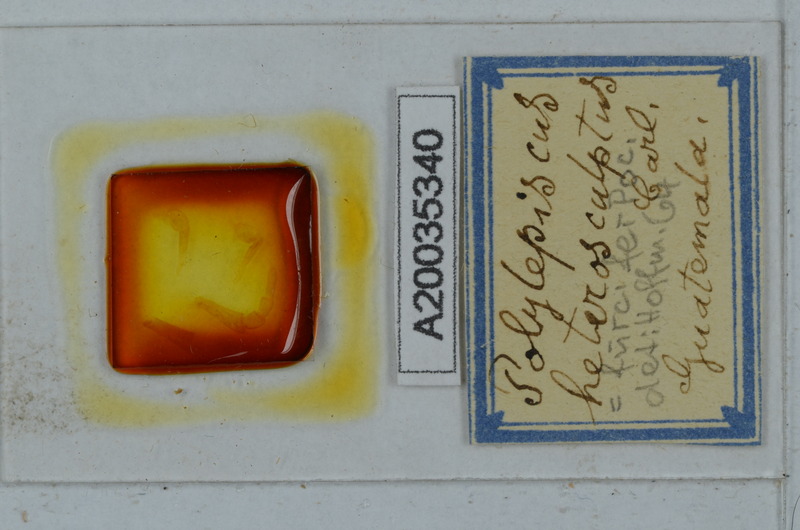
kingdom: Animalia
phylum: Arthropoda
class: Diplopoda
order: Polydesmida
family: Aphelidesmidae
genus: Polylepiscus
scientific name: Polylepiscus heterosculptus
